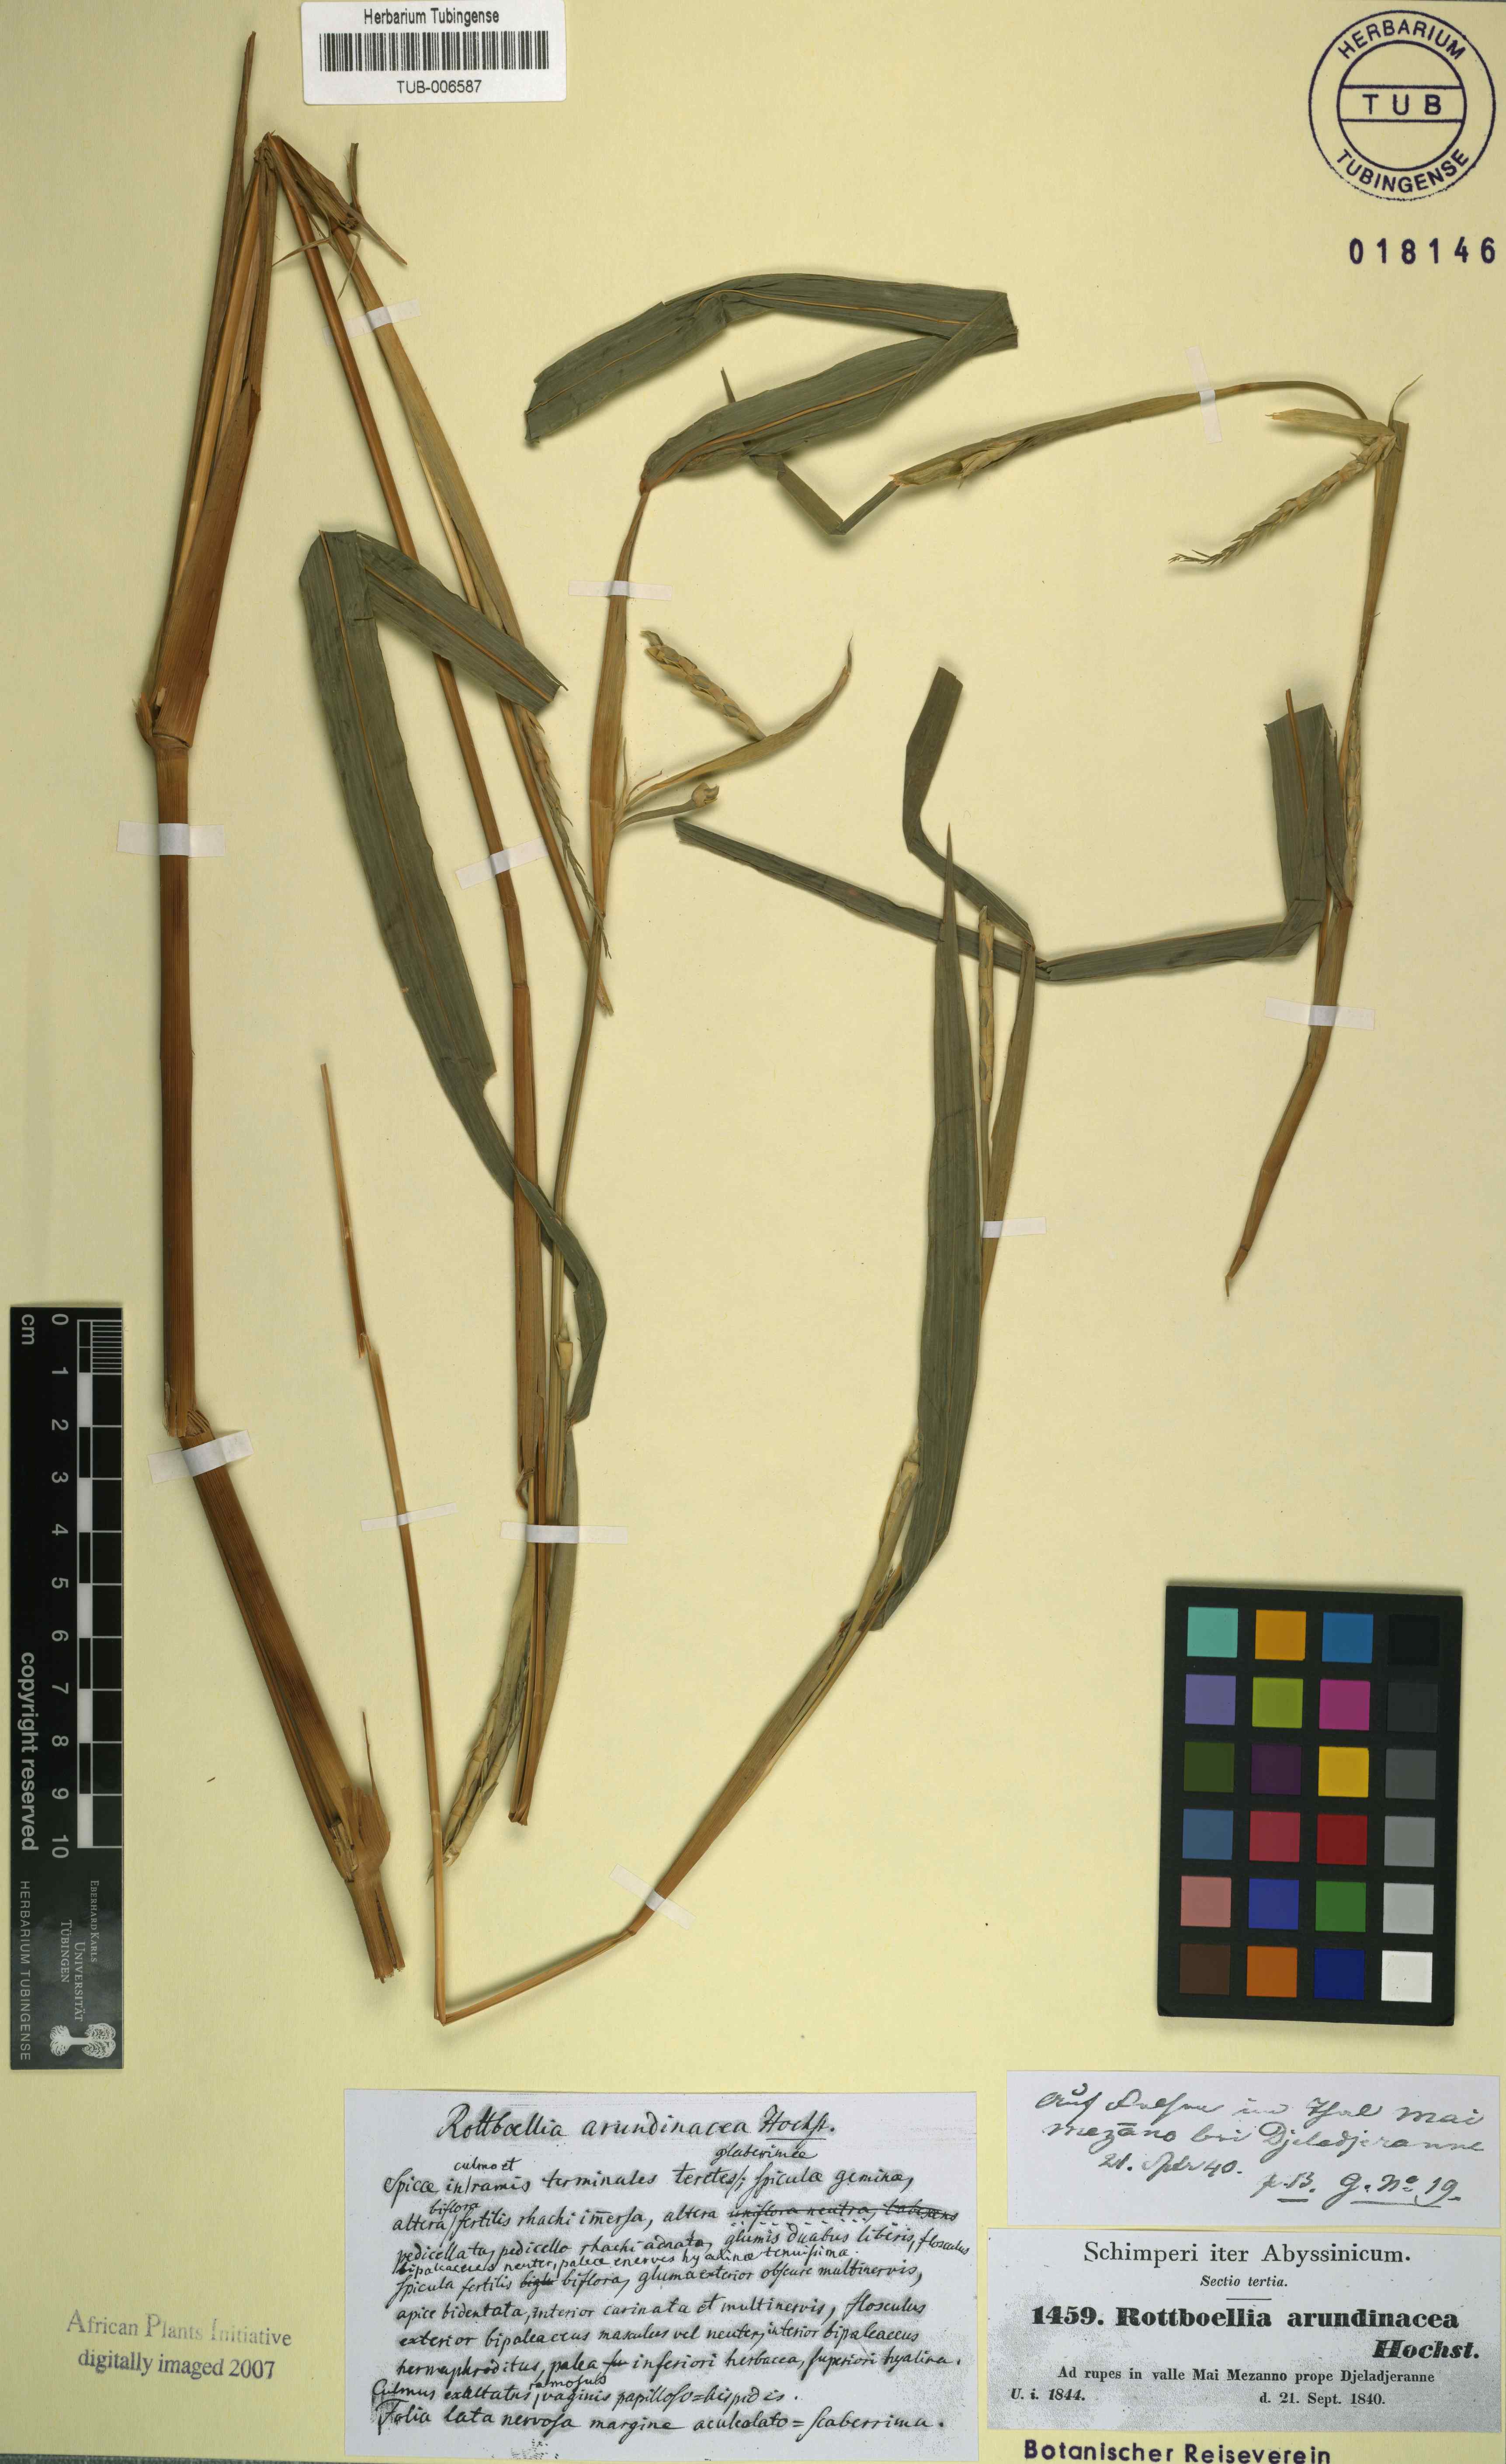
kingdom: Plantae
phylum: Tracheophyta
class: Liliopsida
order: Poales
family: Poaceae
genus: Rottboellia
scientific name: Rottboellia cochinchinensis
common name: Itchgrass
